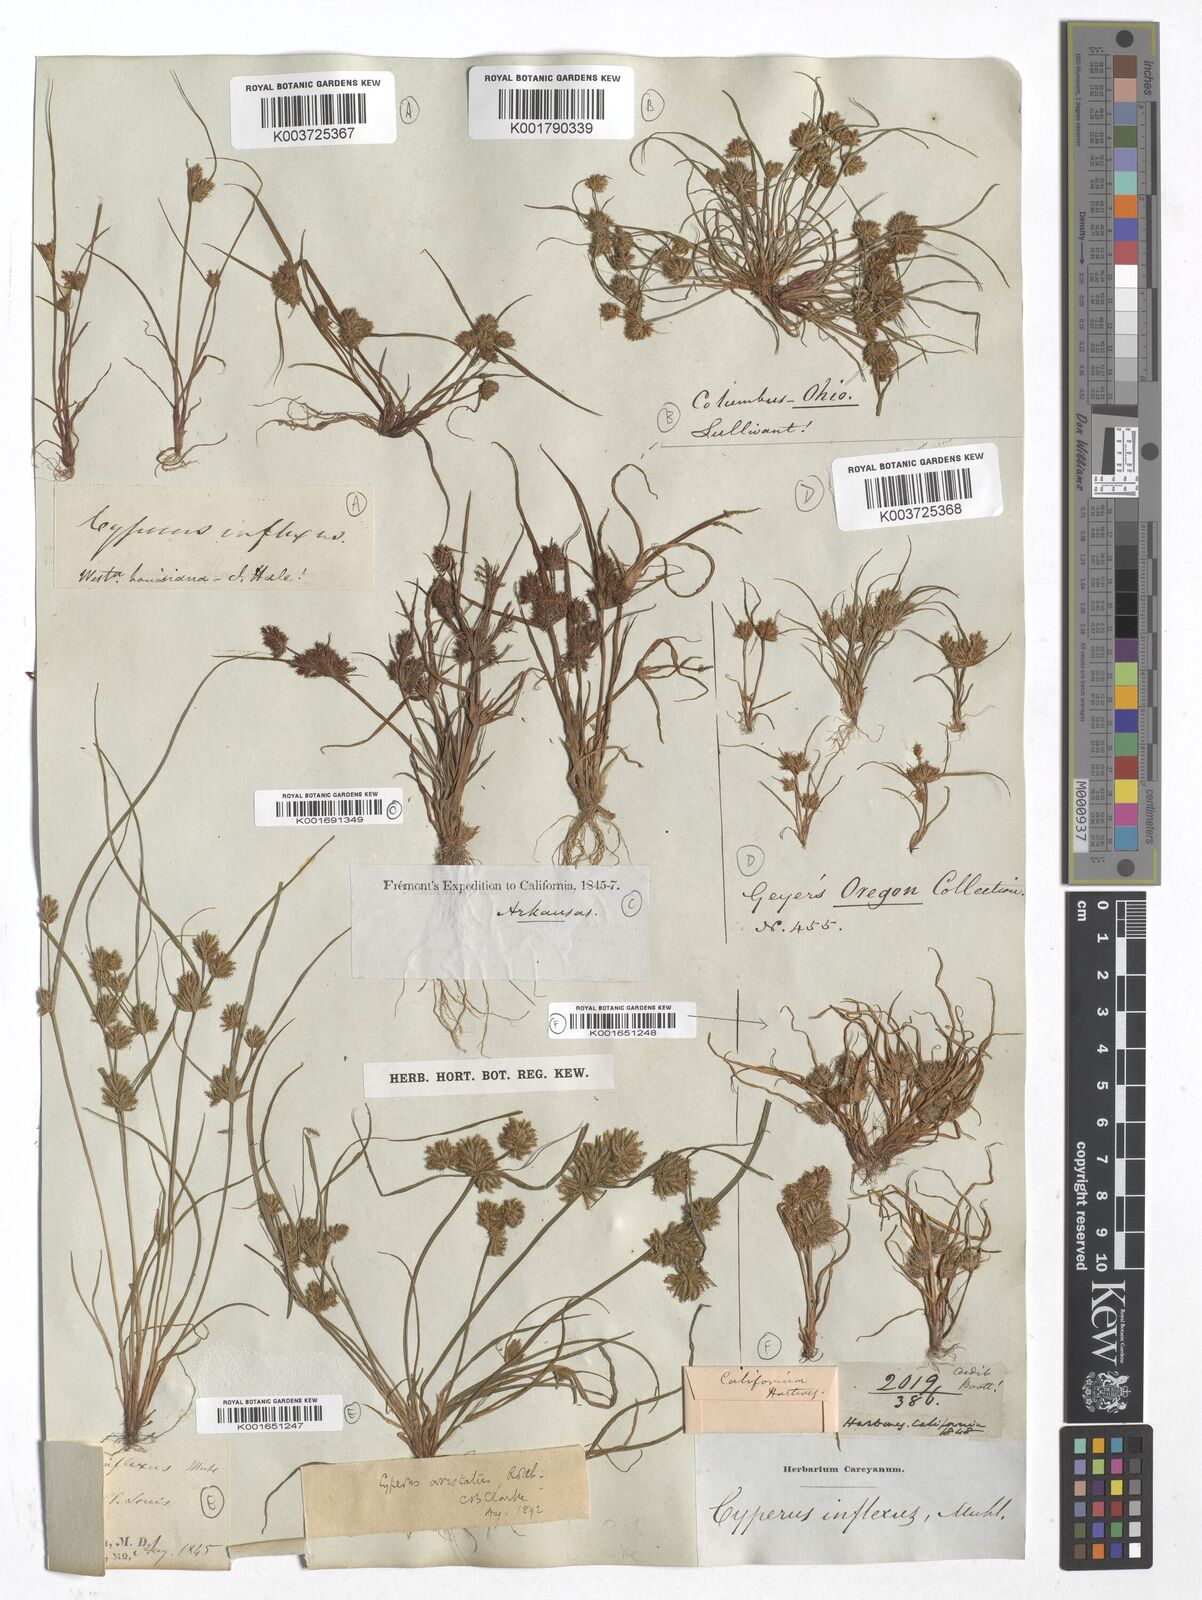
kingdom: Plantae
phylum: Tracheophyta
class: Liliopsida
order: Poales
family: Cyperaceae
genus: Cyperus
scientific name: Cyperus squarrosus
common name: Awned cyperus
